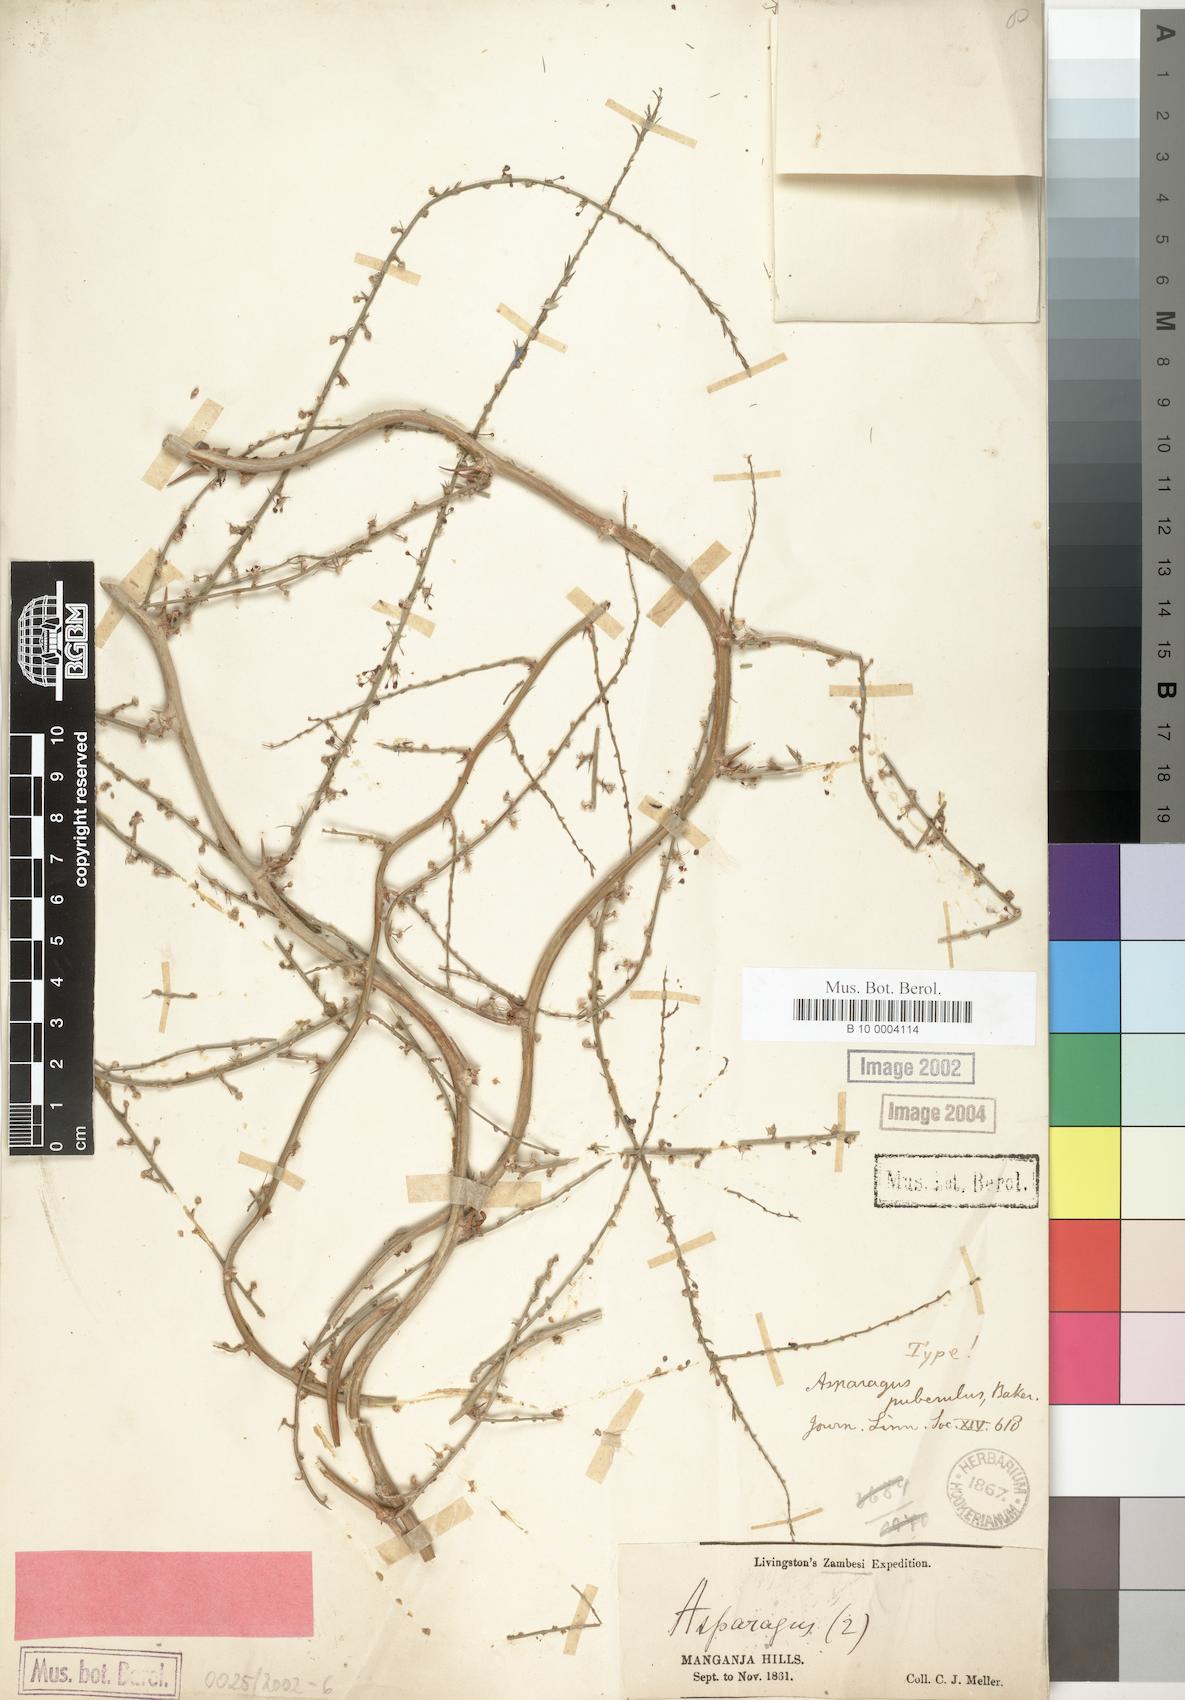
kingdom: Plantae
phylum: Tracheophyta
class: Liliopsida
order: Asparagales
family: Asparagaceae
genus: Asparagus
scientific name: Asparagus africanus
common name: Asparagus-fern
